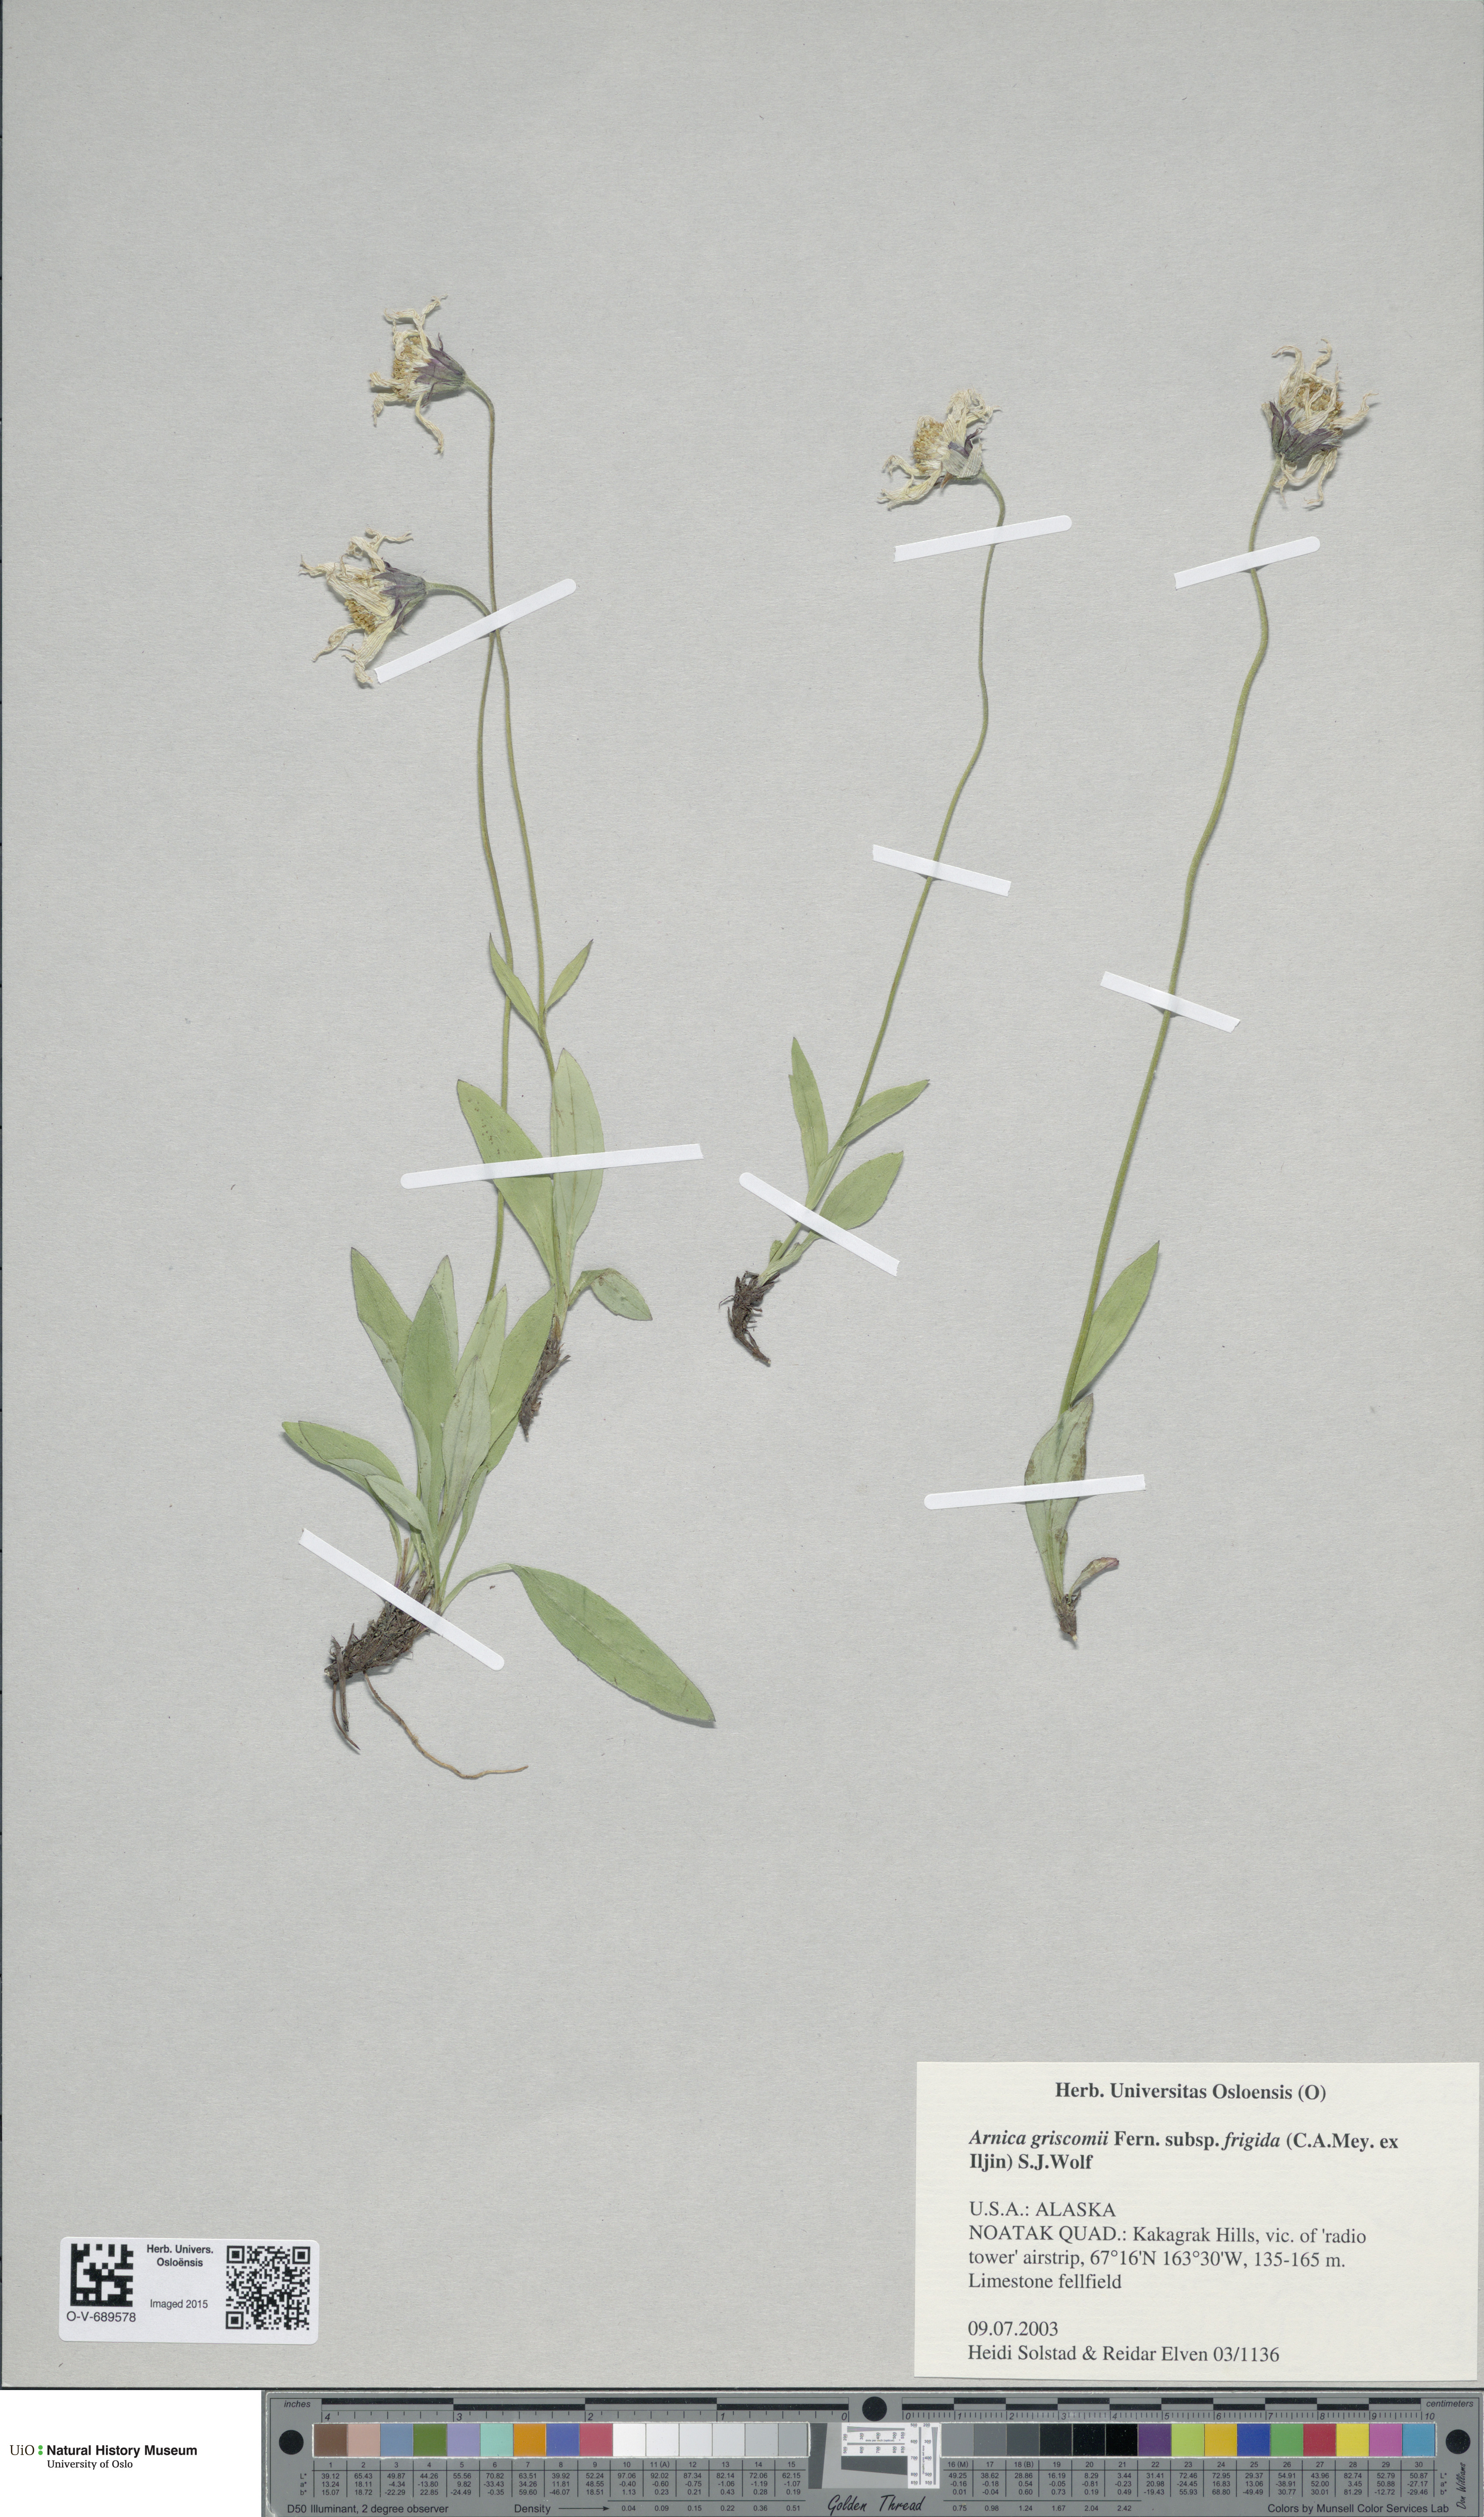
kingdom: Plantae
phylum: Tracheophyta
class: Magnoliopsida
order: Asterales
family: Asteraceae
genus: Arnica
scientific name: Arnica griscomii
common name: Snow arnica
